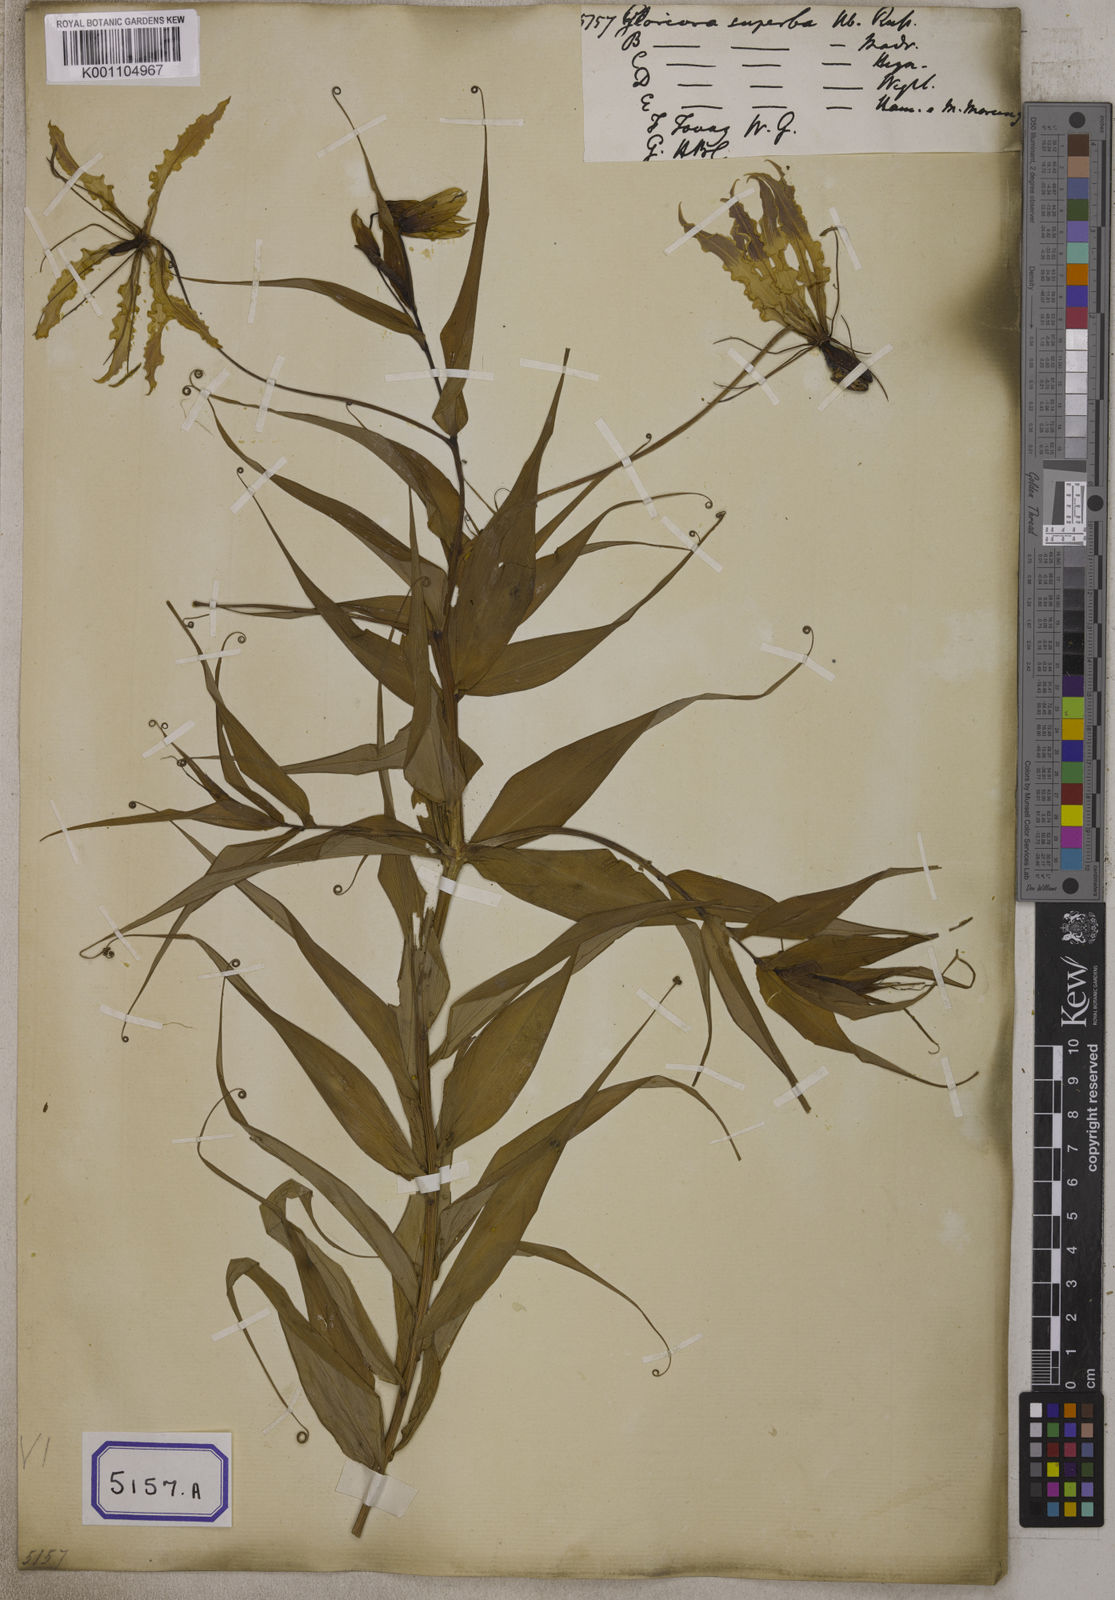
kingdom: Plantae
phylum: Tracheophyta
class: Liliopsida
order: Liliales
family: Colchicaceae
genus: Gloriosa
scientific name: Gloriosa superba
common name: Flame lily
